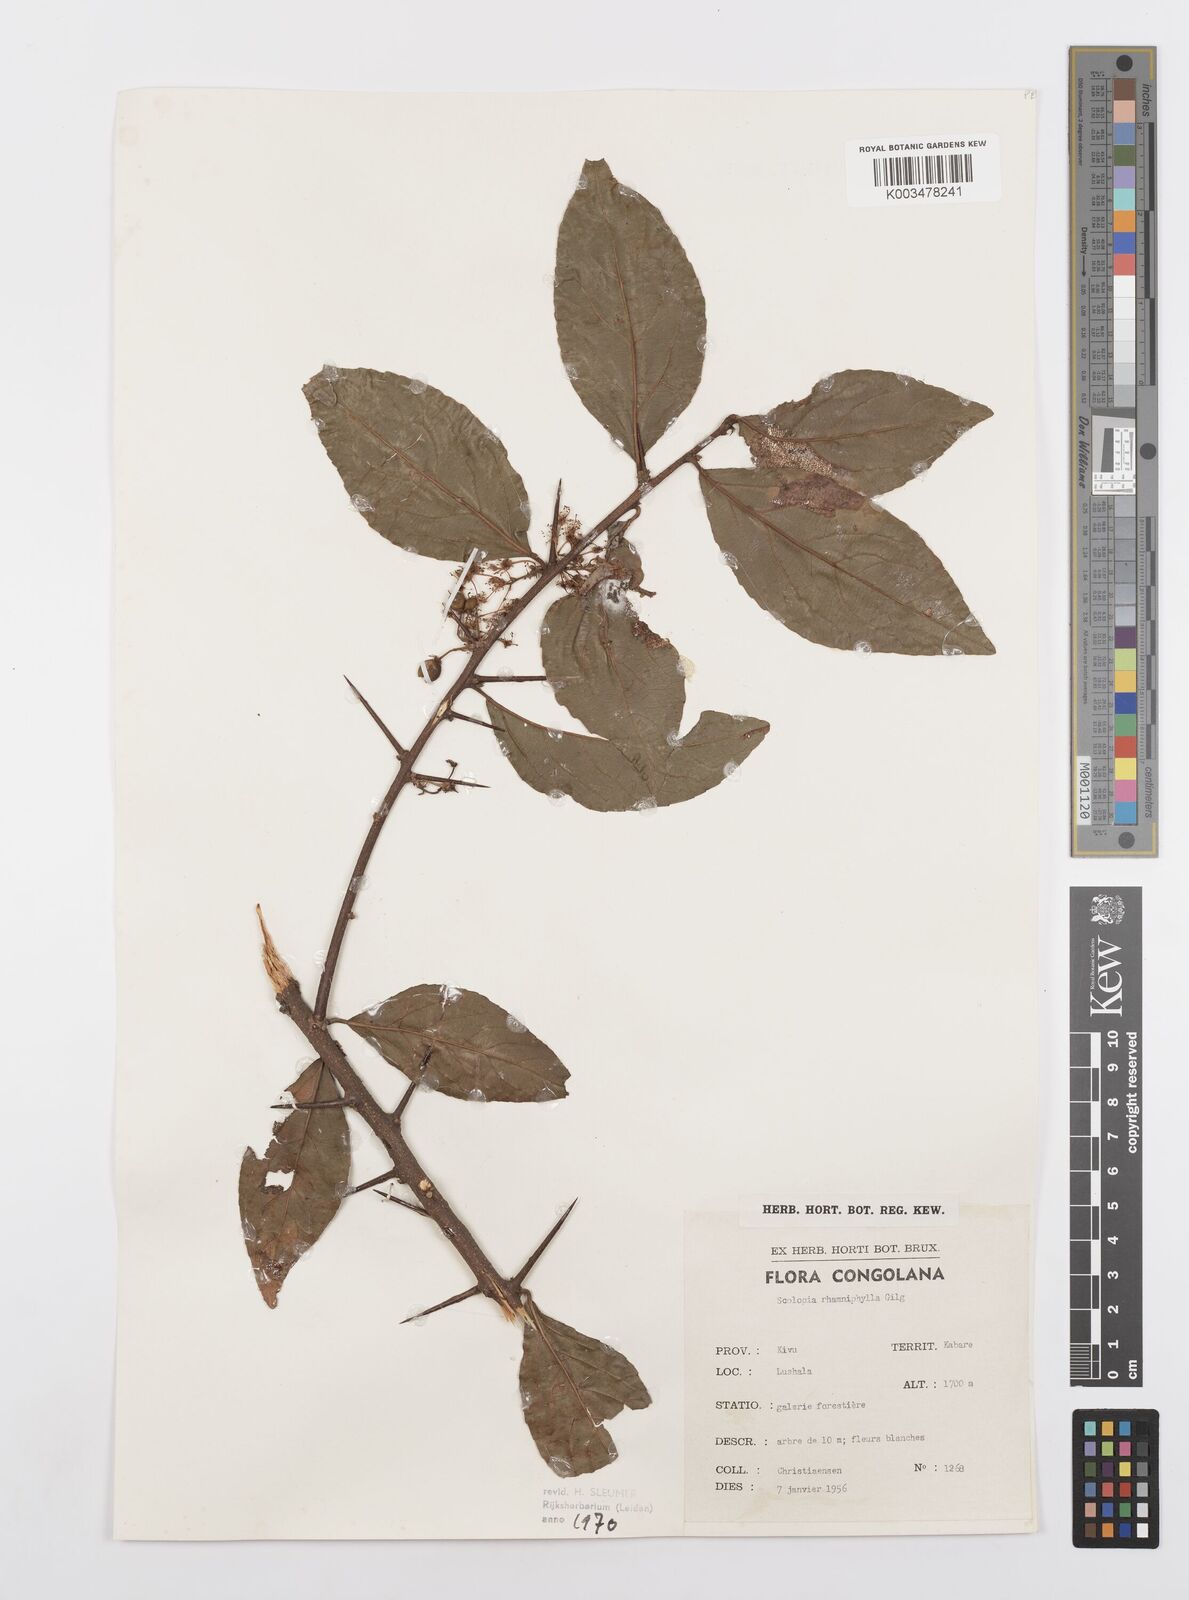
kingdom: Plantae
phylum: Tracheophyta
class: Magnoliopsida
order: Malpighiales
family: Salicaceae
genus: Scolopia
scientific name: Scolopia rhamniphylla
